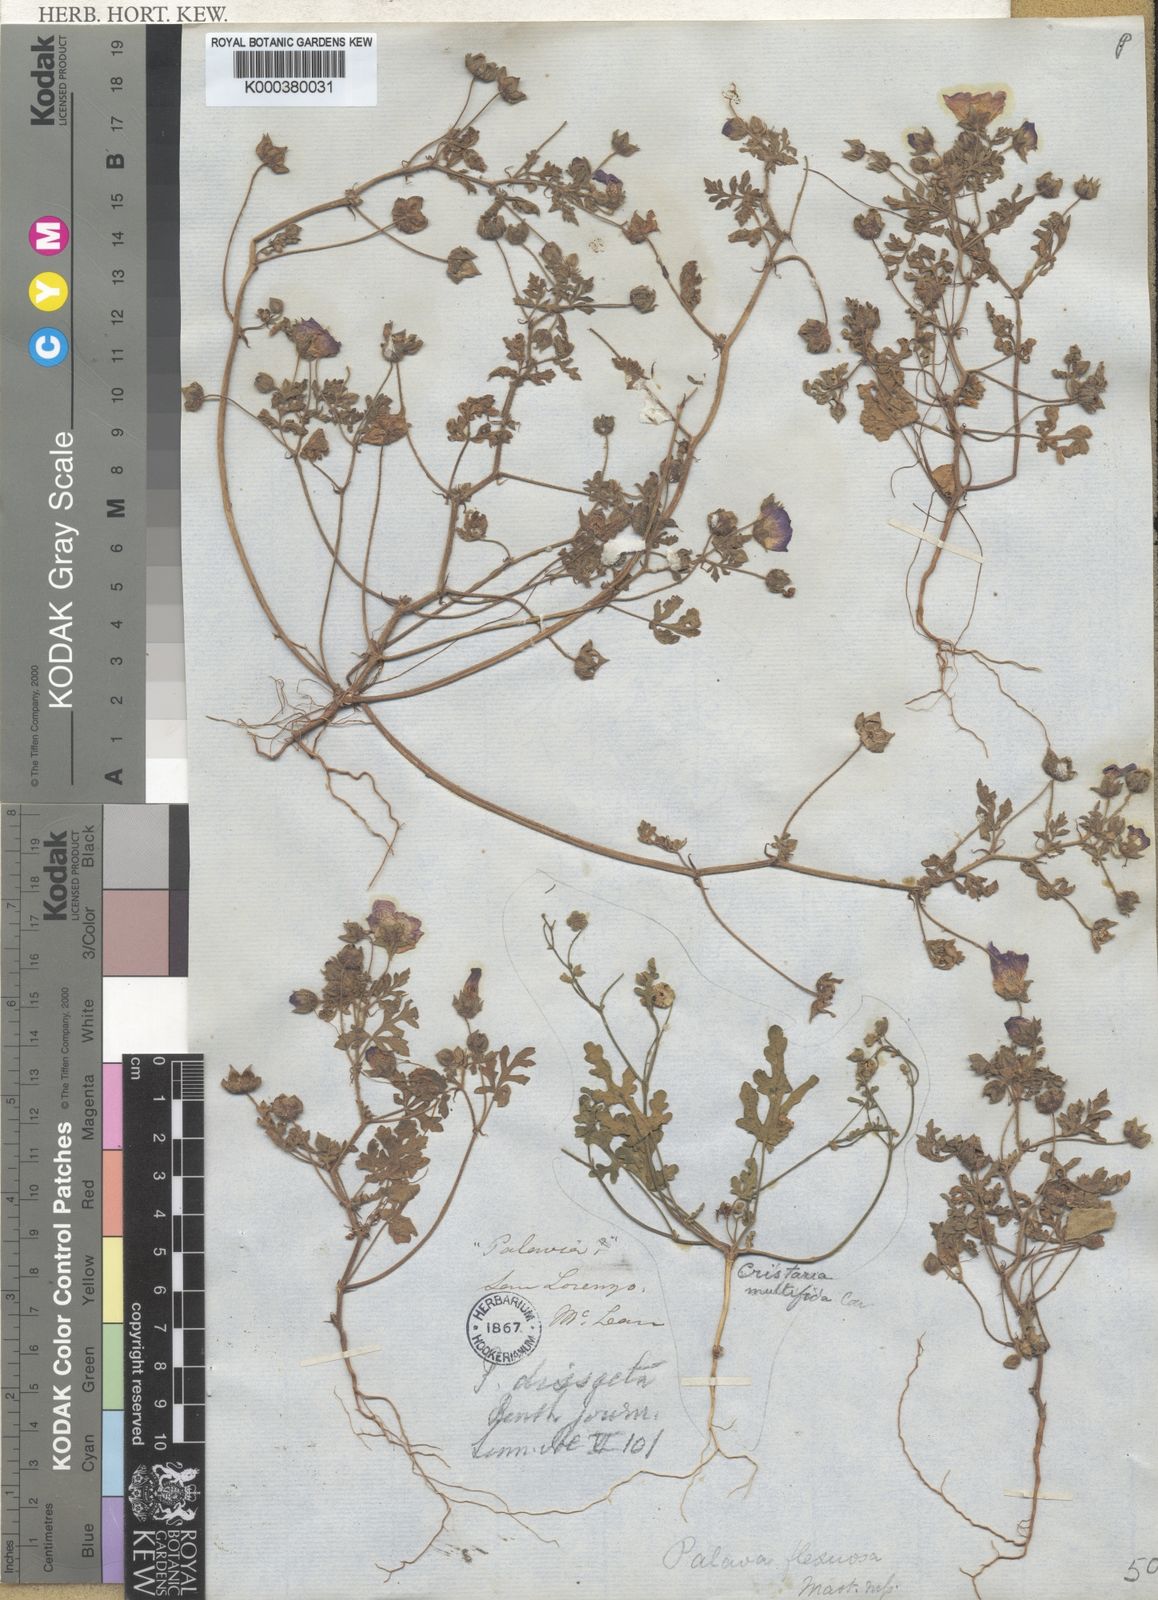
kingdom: Plantae
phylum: Tracheophyta
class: Magnoliopsida
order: Malvales
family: Malvaceae
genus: Palaua
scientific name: Palaua dissecta
